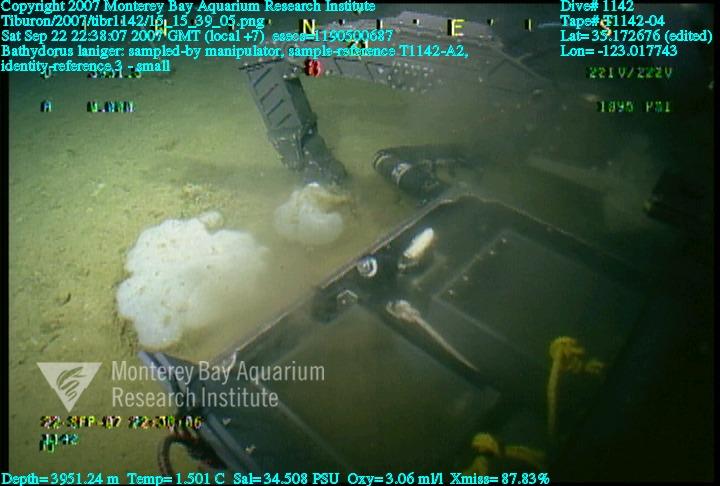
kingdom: Animalia
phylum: Porifera
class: Hexactinellida
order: Lyssacinosida
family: Rossellidae
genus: Bathydorus
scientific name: Bathydorus laniger
